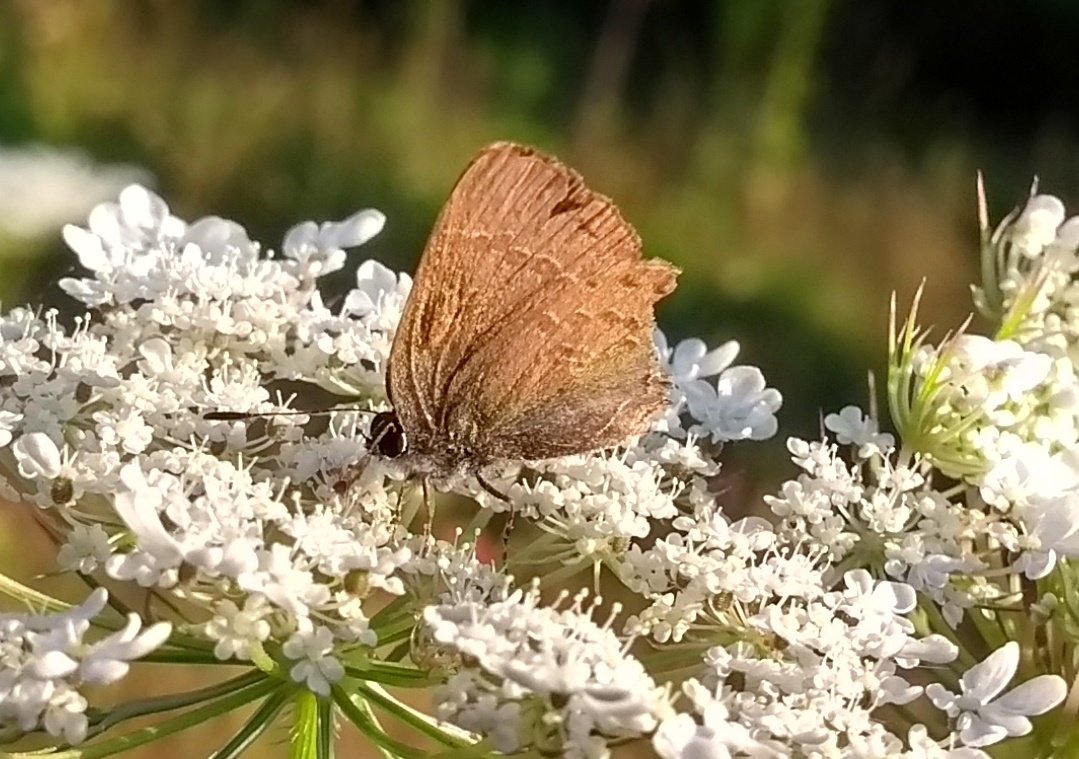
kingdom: Animalia
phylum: Arthropoda
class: Insecta
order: Lepidoptera
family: Lycaenidae
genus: Satyrium
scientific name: Satyrium calanus
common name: Banded Hairstreak
